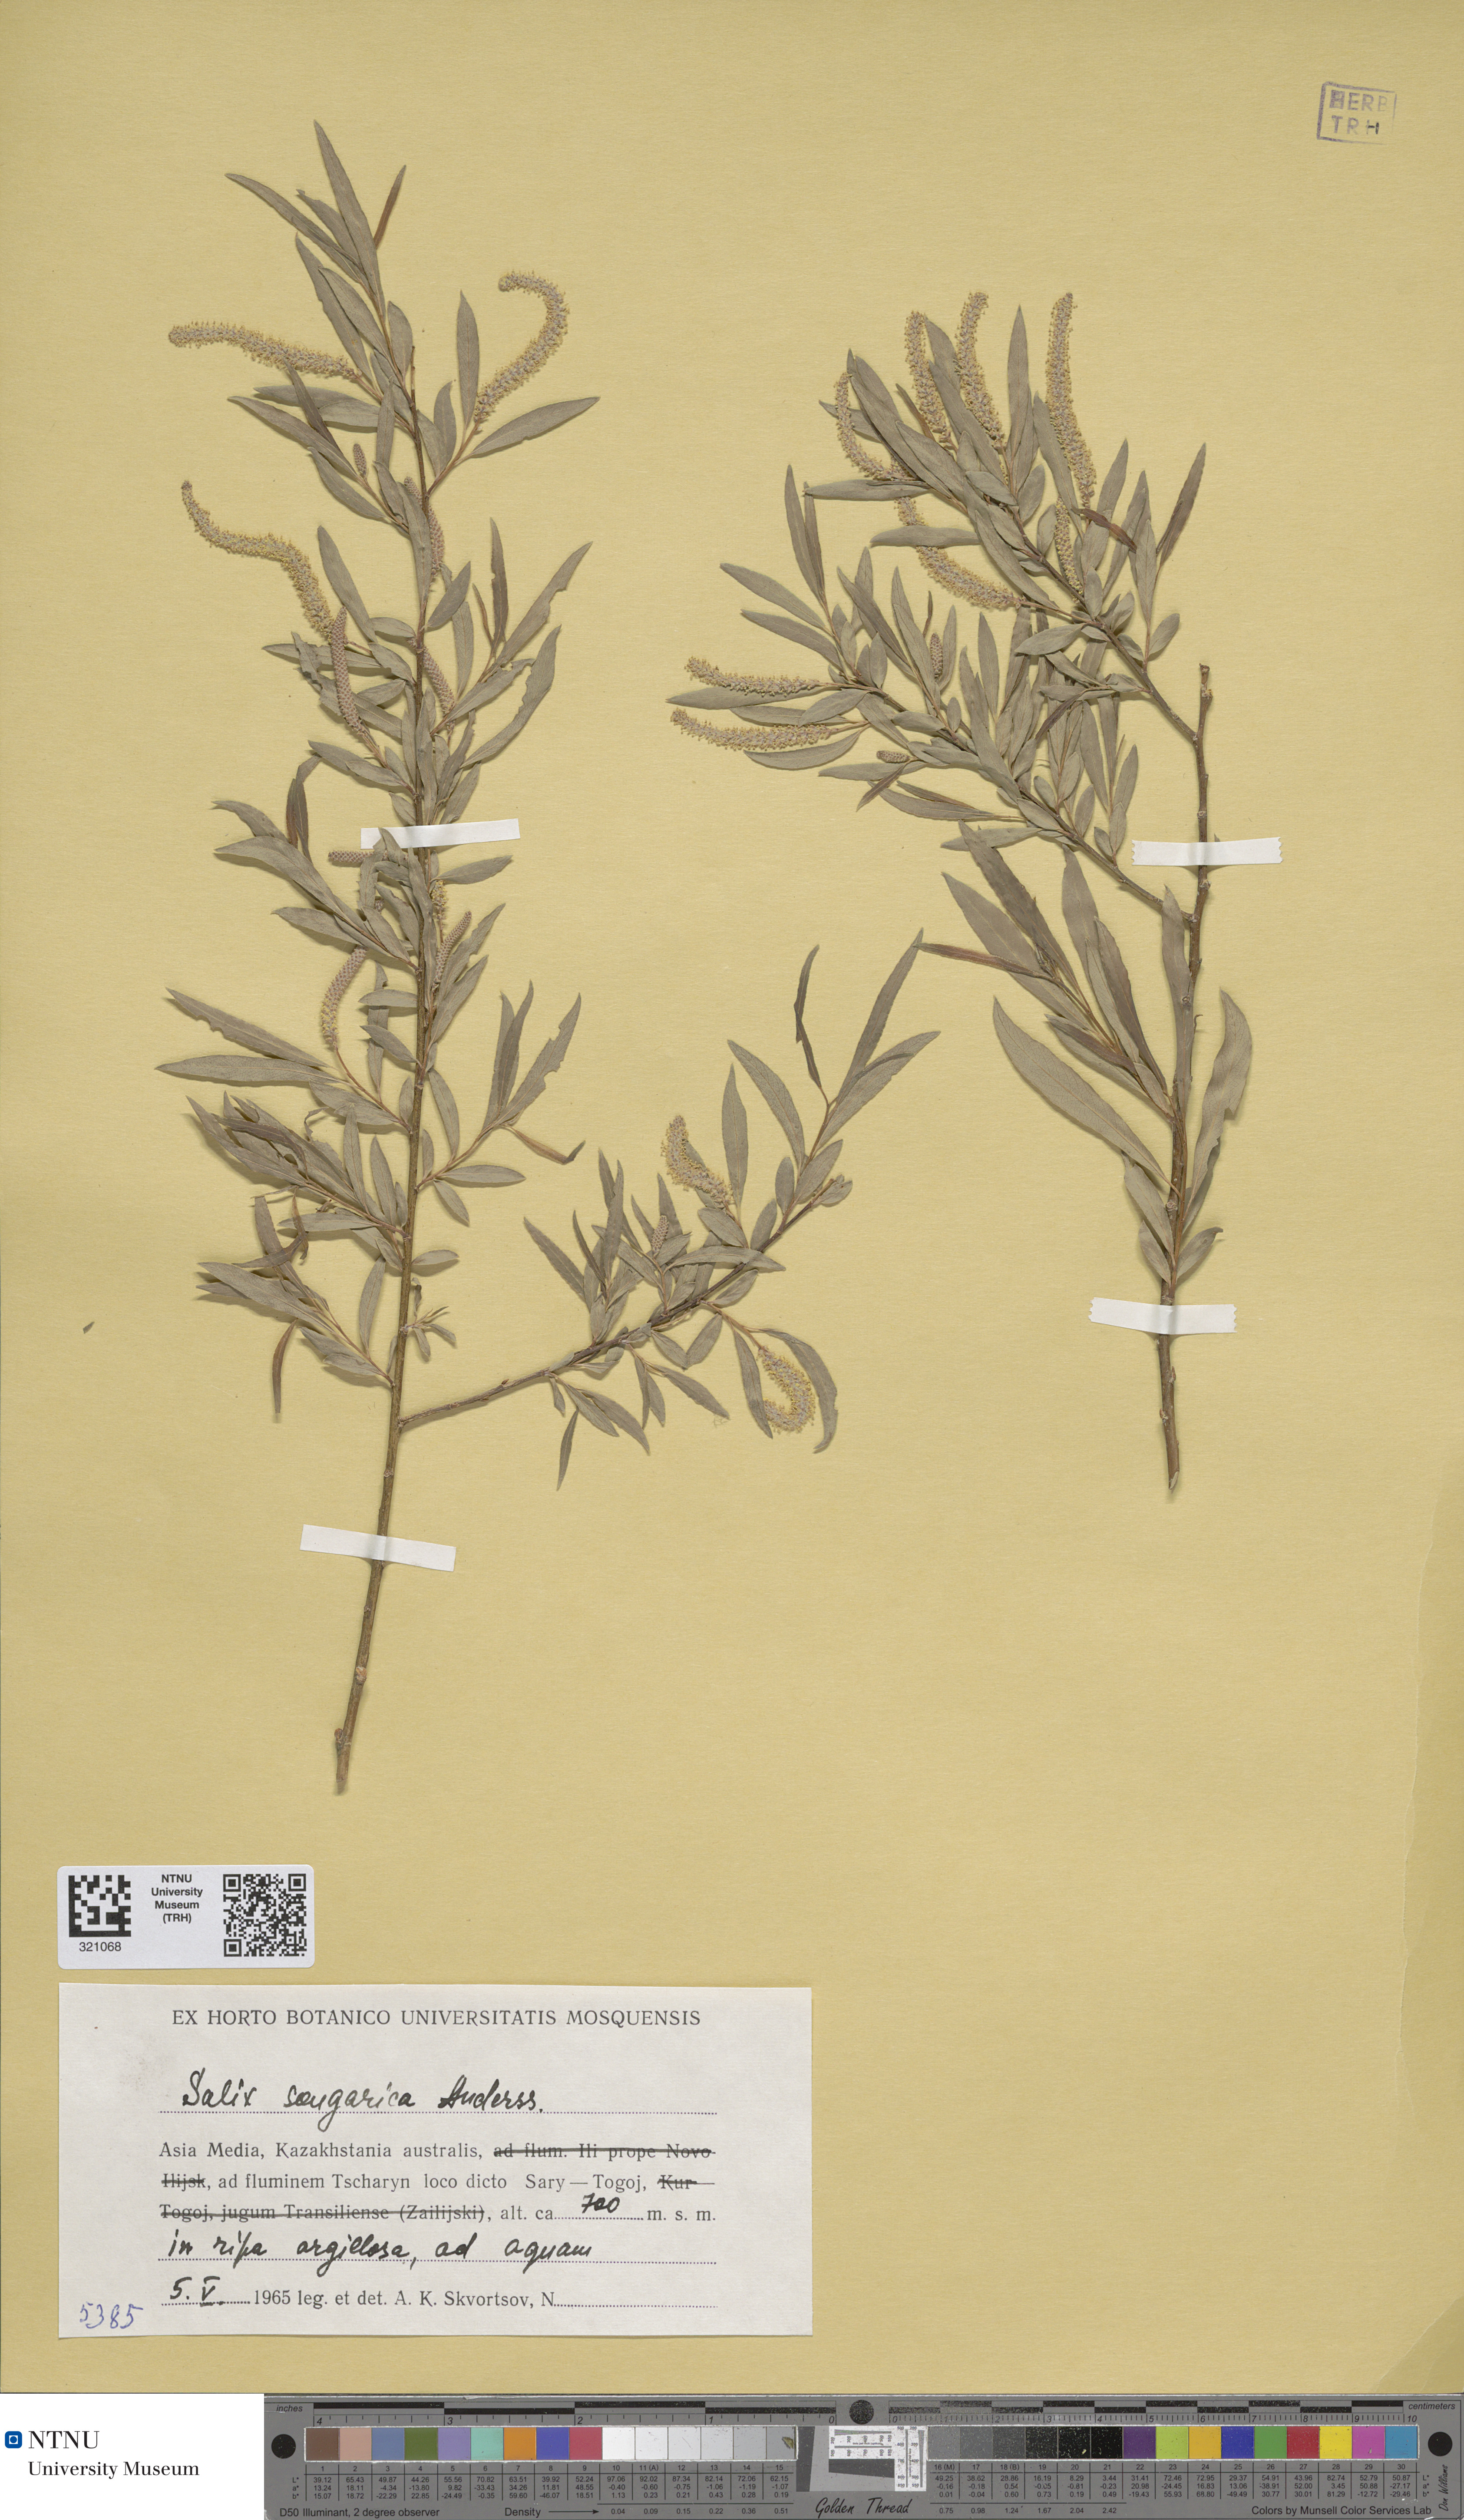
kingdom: Plantae
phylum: Tracheophyta
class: Magnoliopsida
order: Malpighiales
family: Salicaceae
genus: Salix
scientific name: Salix songarica
